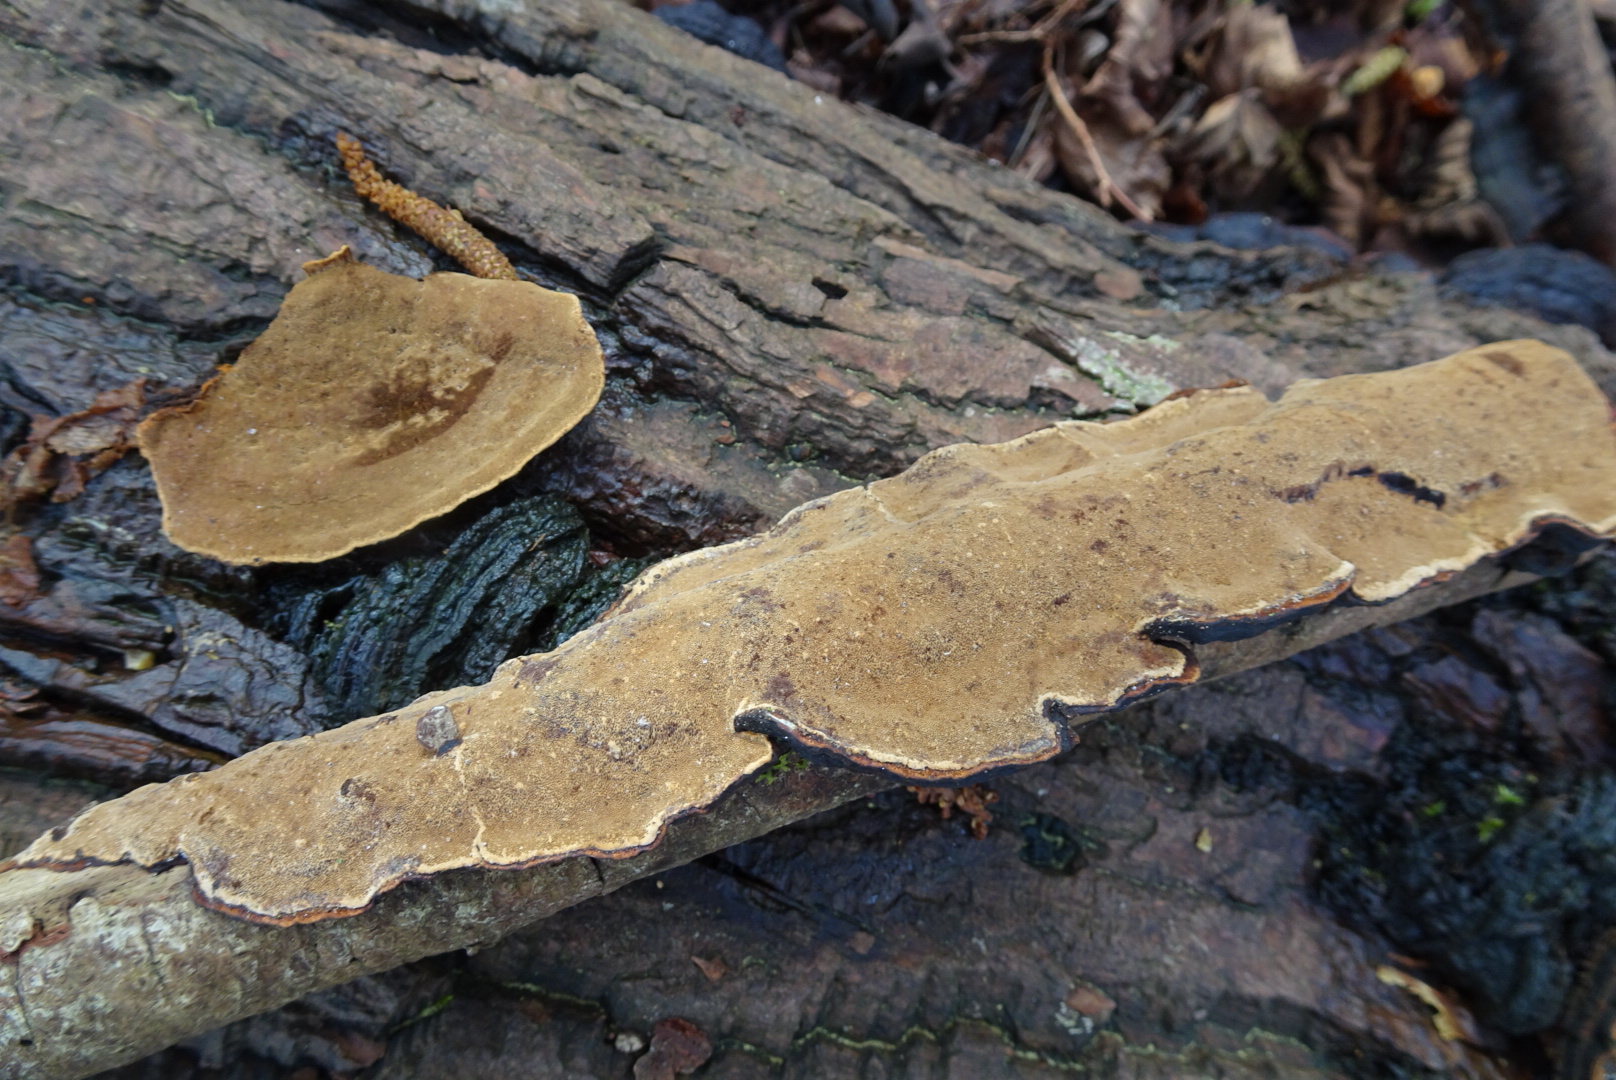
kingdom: Fungi
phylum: Basidiomycota
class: Agaricomycetes
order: Hymenochaetales
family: Hymenochaetaceae
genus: Hymenochaete
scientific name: Hymenochaete rubiginosa
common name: stiv ruslædersvamp
